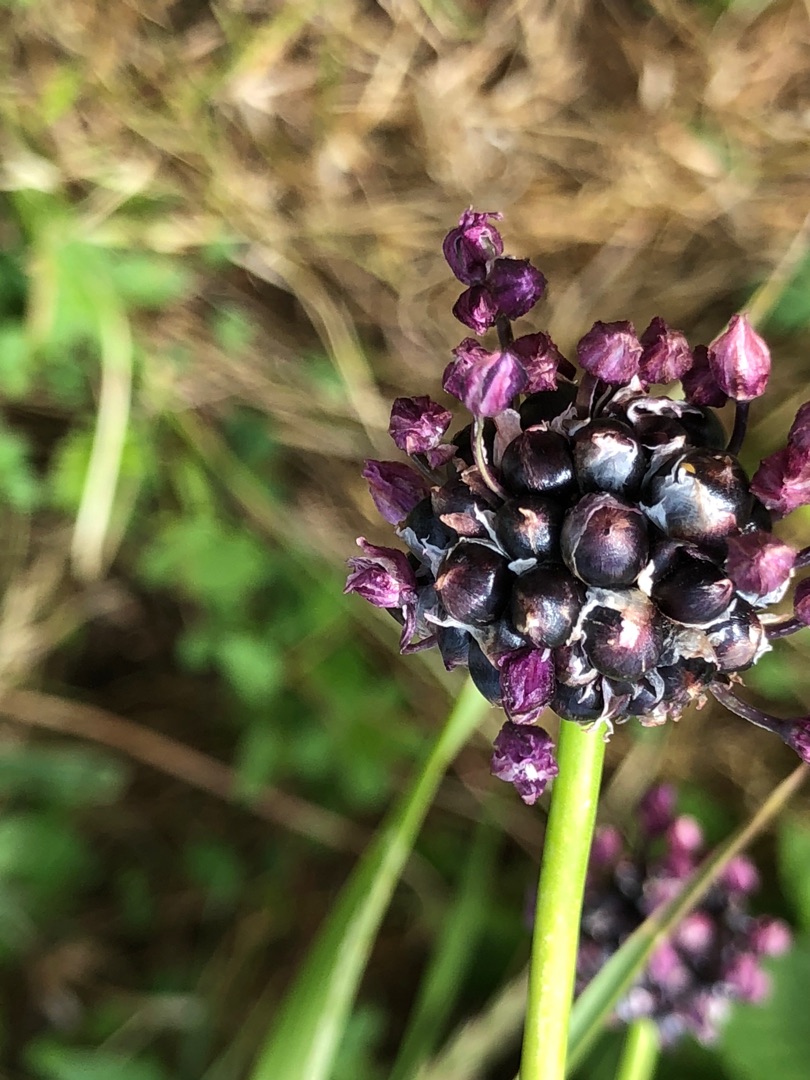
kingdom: Plantae
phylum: Tracheophyta
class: Liliopsida
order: Asparagales
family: Amaryllidaceae
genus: Allium
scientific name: Allium scorodoprasum
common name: Skov-løg
